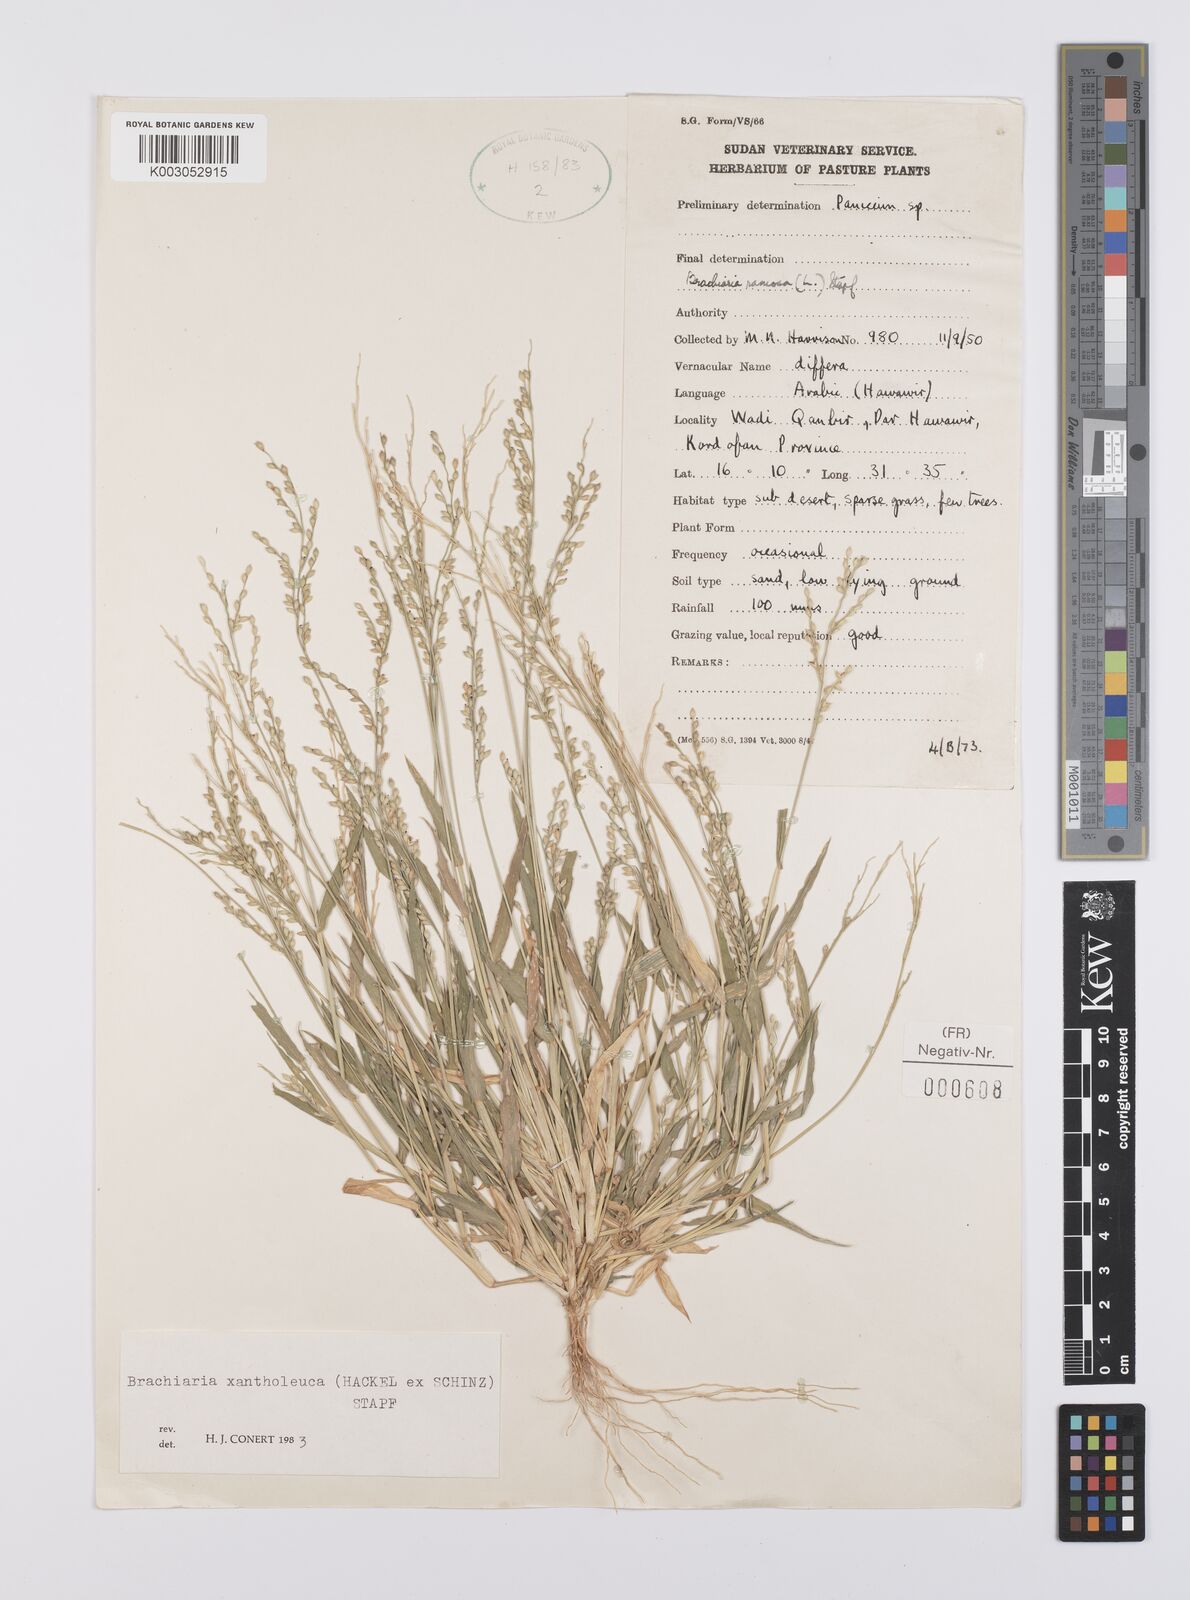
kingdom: Plantae
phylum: Tracheophyta
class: Liliopsida
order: Poales
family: Poaceae
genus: Urochloa
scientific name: Urochloa ramosa
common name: Browntop millet
